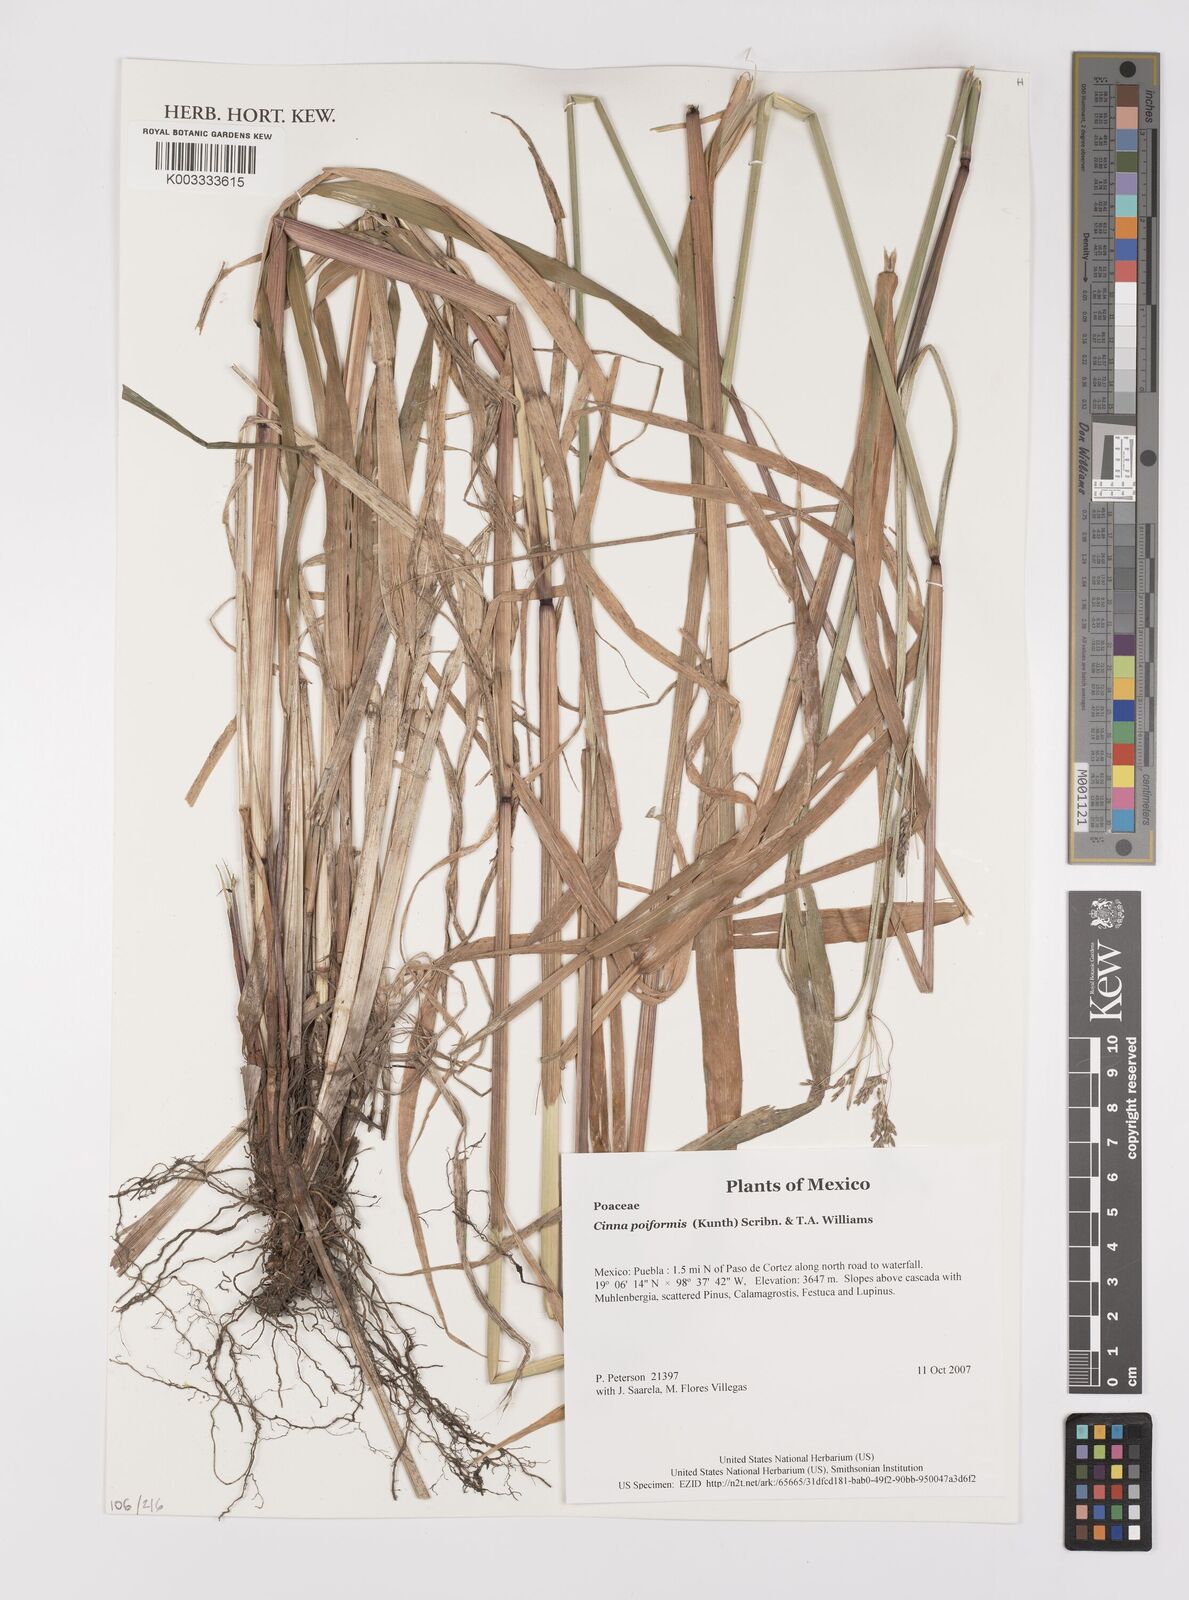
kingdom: Plantae
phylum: Tracheophyta
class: Liliopsida
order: Poales
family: Poaceae
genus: Cinnastrum
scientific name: Cinnastrum poiforme
